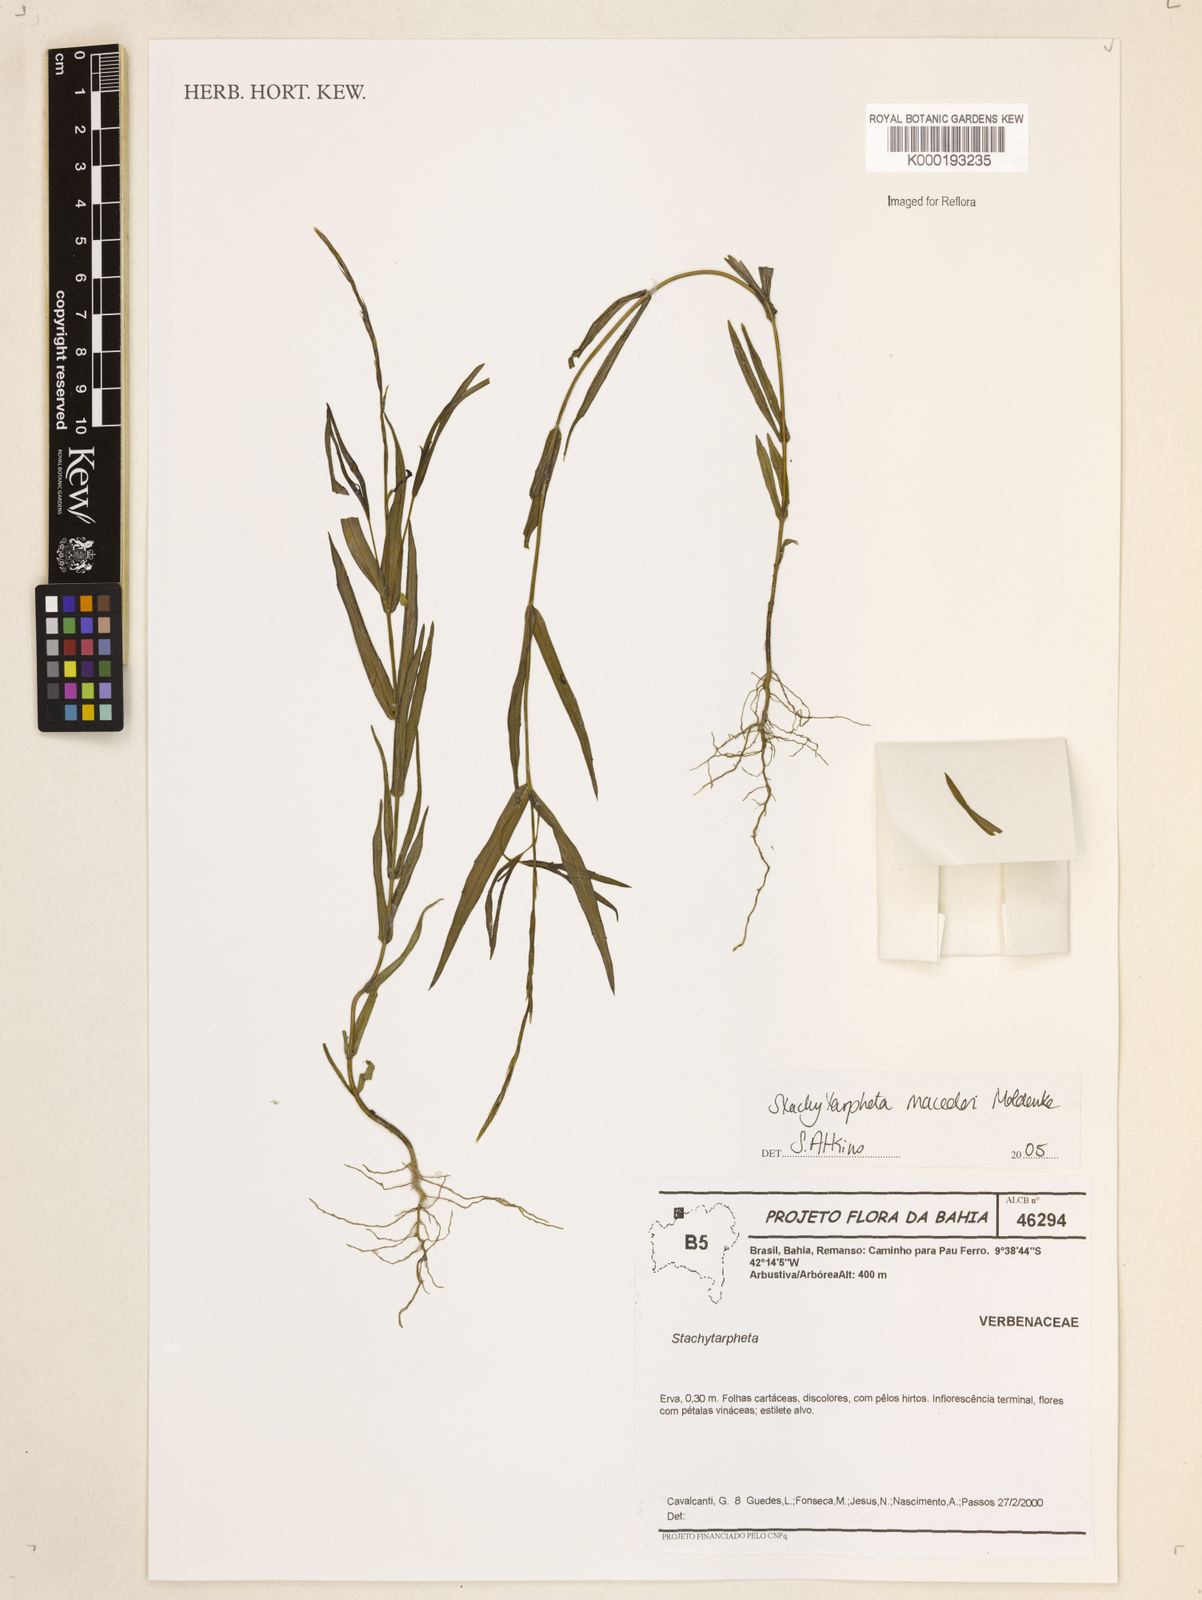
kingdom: Plantae
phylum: Tracheophyta
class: Magnoliopsida
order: Lamiales
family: Verbenaceae
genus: Stachytarpheta
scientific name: Stachytarpheta macedoi
